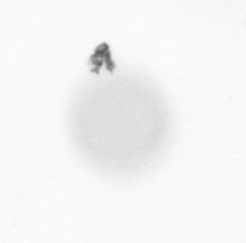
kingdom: Animalia
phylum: Arthropoda
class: Copepoda
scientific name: Copepoda
